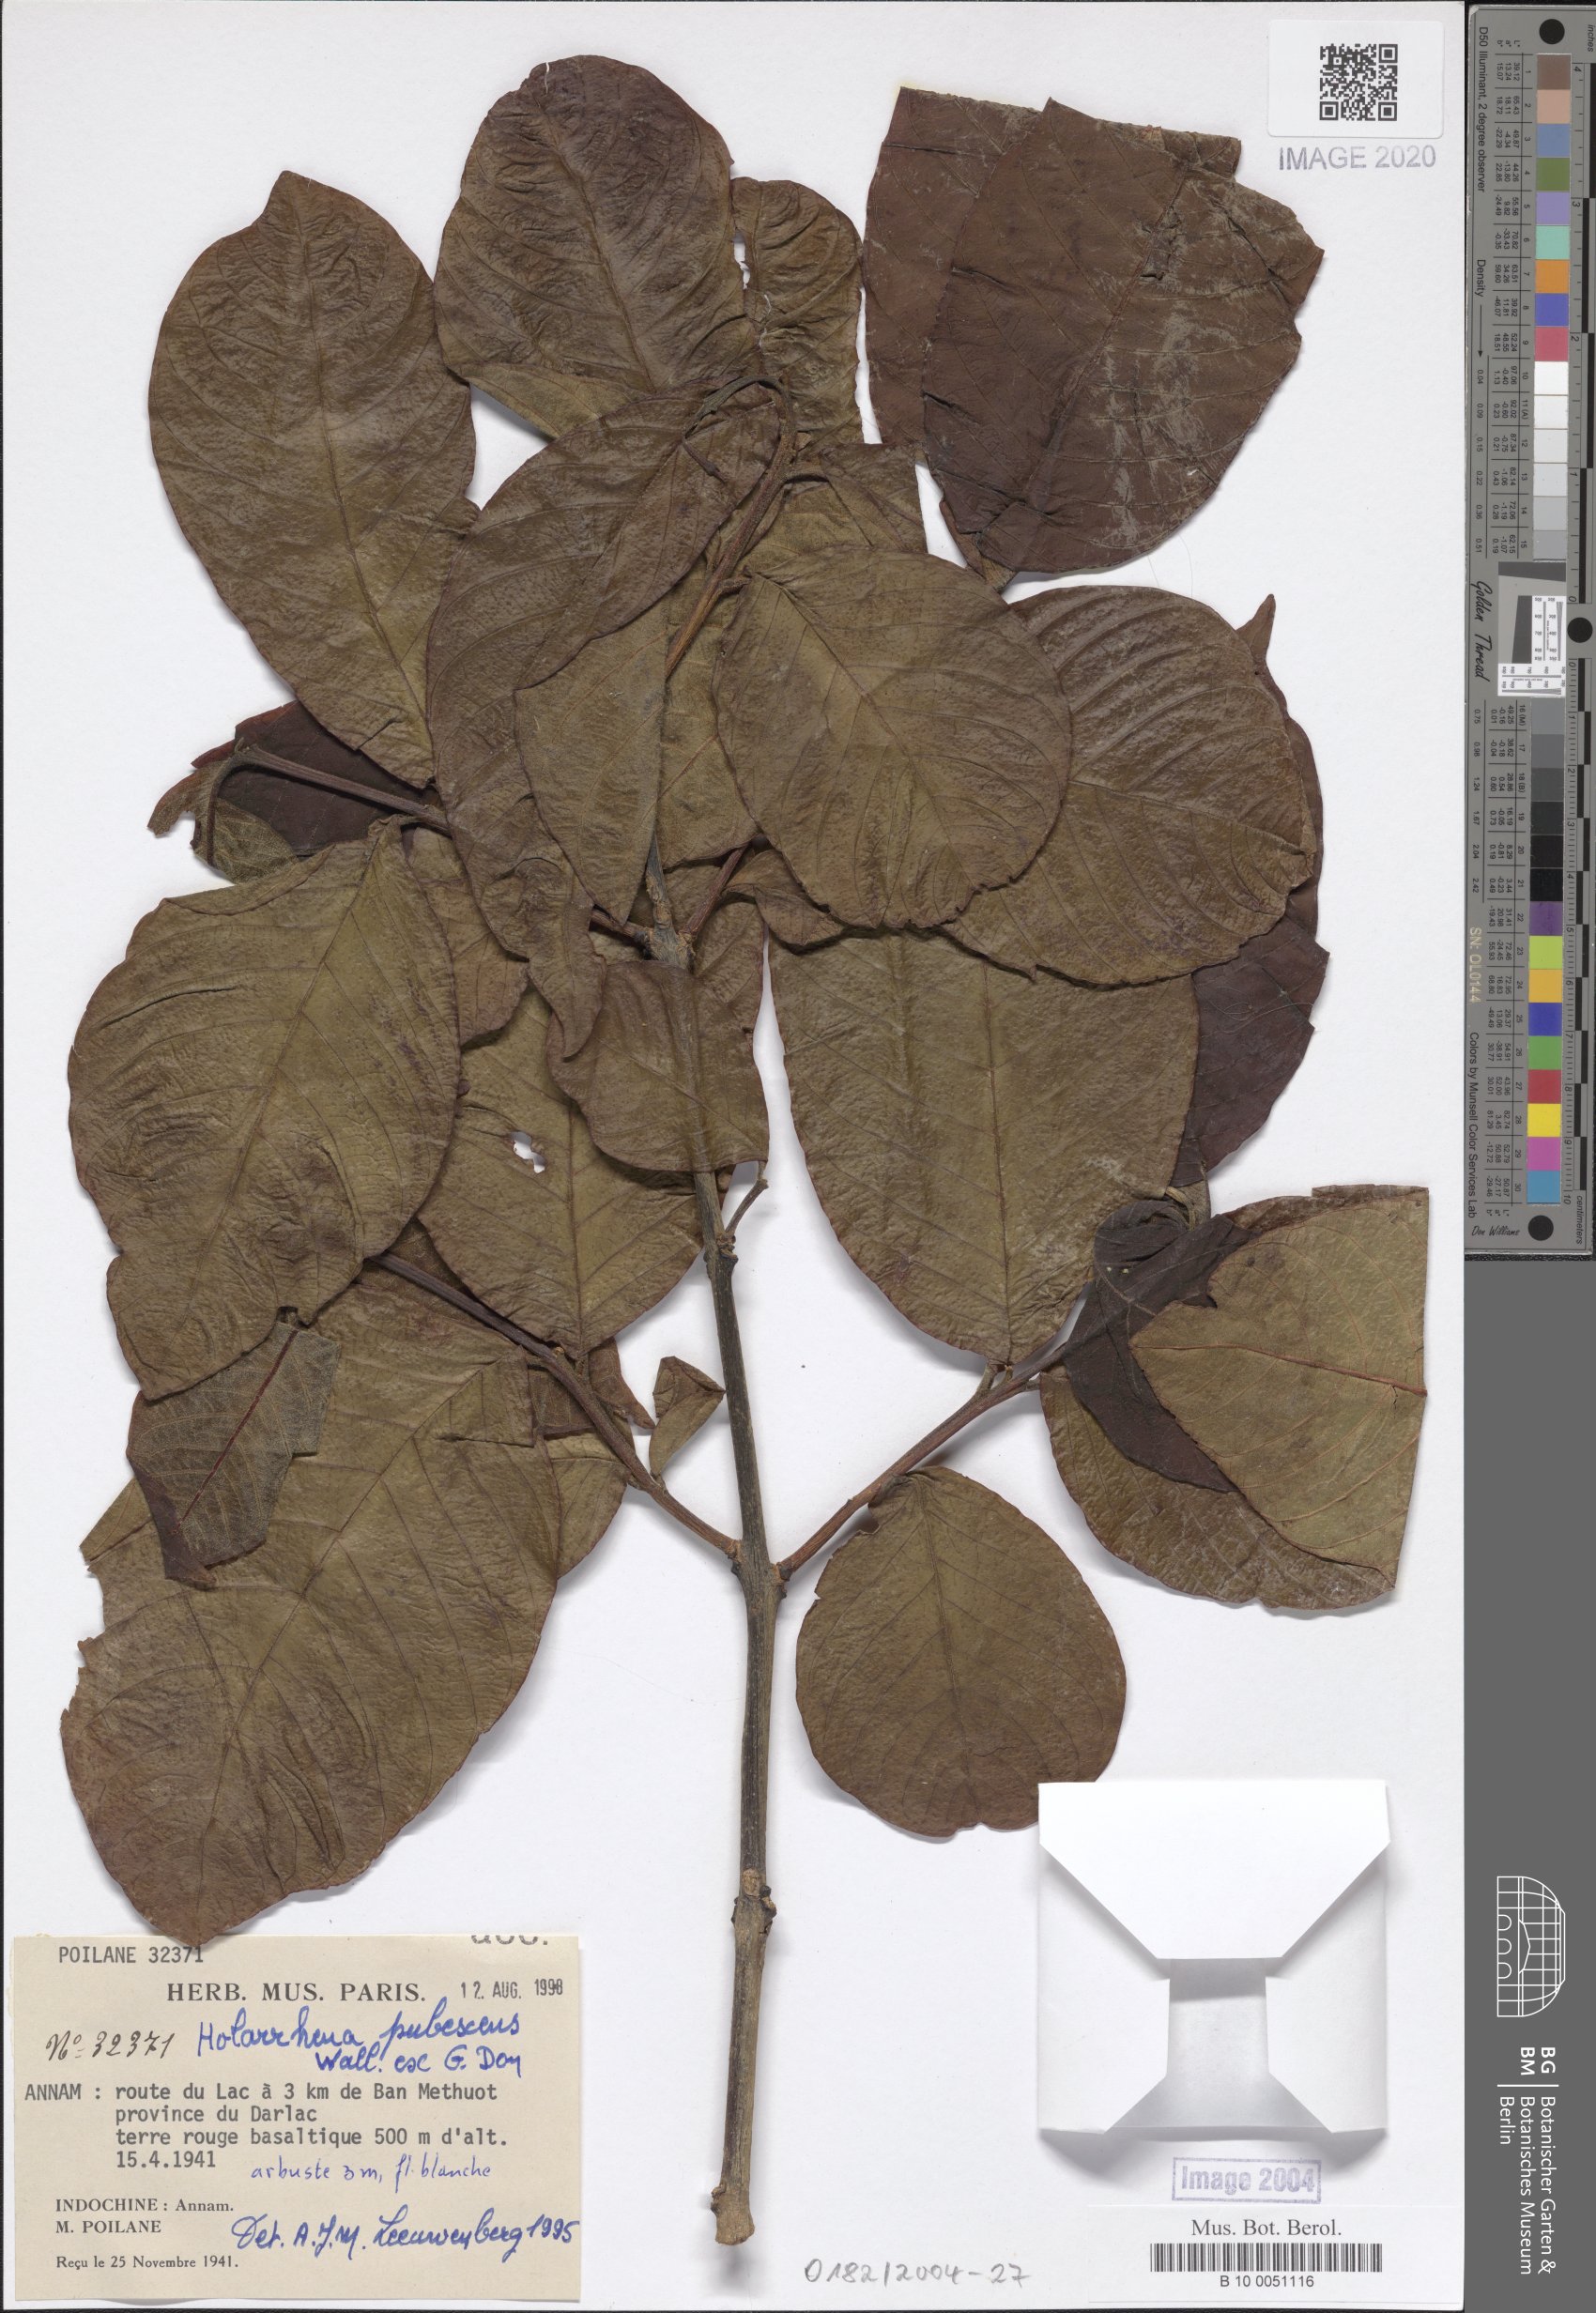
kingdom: Plantae
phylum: Tracheophyta
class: Magnoliopsida
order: Gentianales
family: Apocynaceae
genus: Holarrhena
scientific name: Holarrhena pubescens
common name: Bitter oleander
